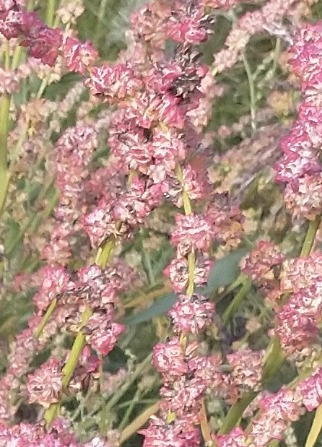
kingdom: Plantae
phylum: Tracheophyta
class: Magnoliopsida
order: Caryophyllales
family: Amaranthaceae
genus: Atriplex
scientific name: Atriplex littoralis
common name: Strand-mælde
